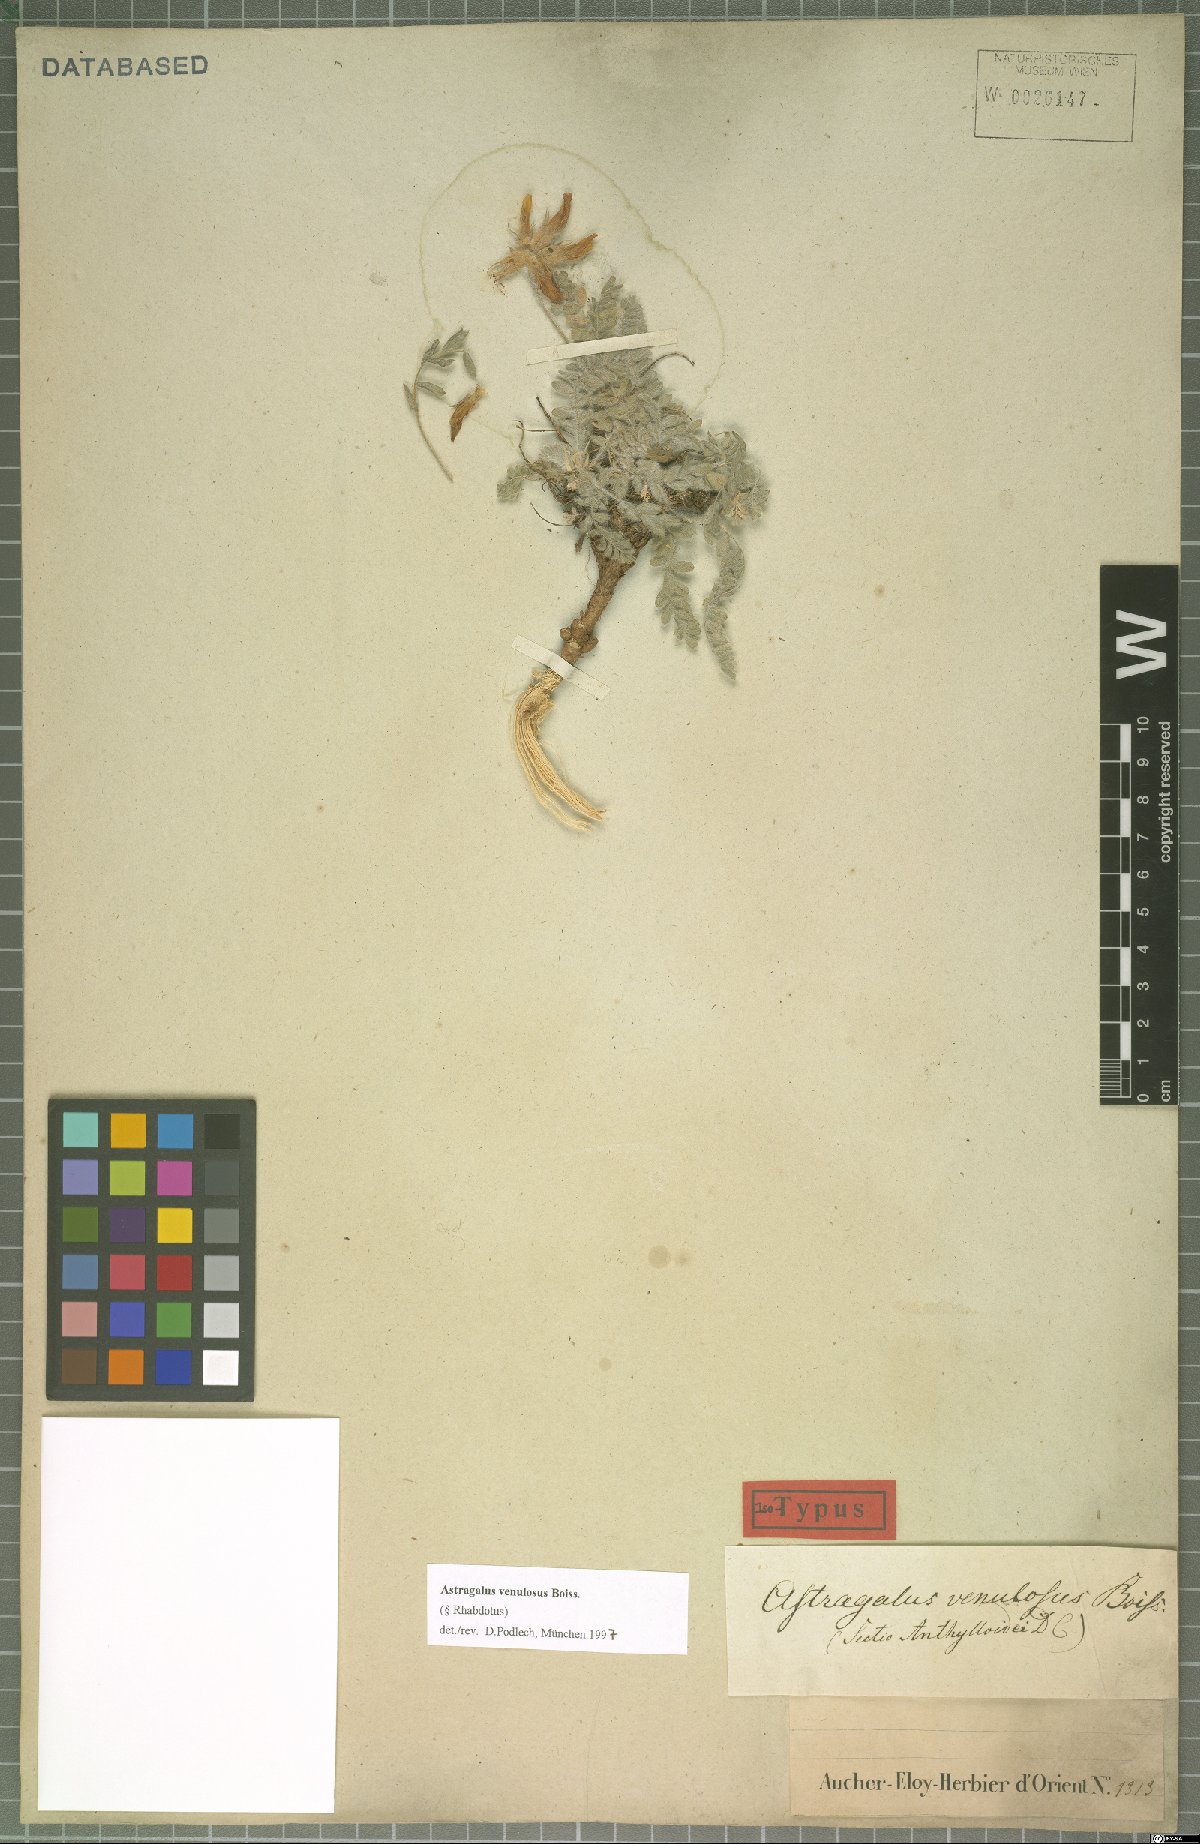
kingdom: Plantae
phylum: Tracheophyta
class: Magnoliopsida
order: Fabales
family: Fabaceae
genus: Astragalus
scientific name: Astragalus venulosus
